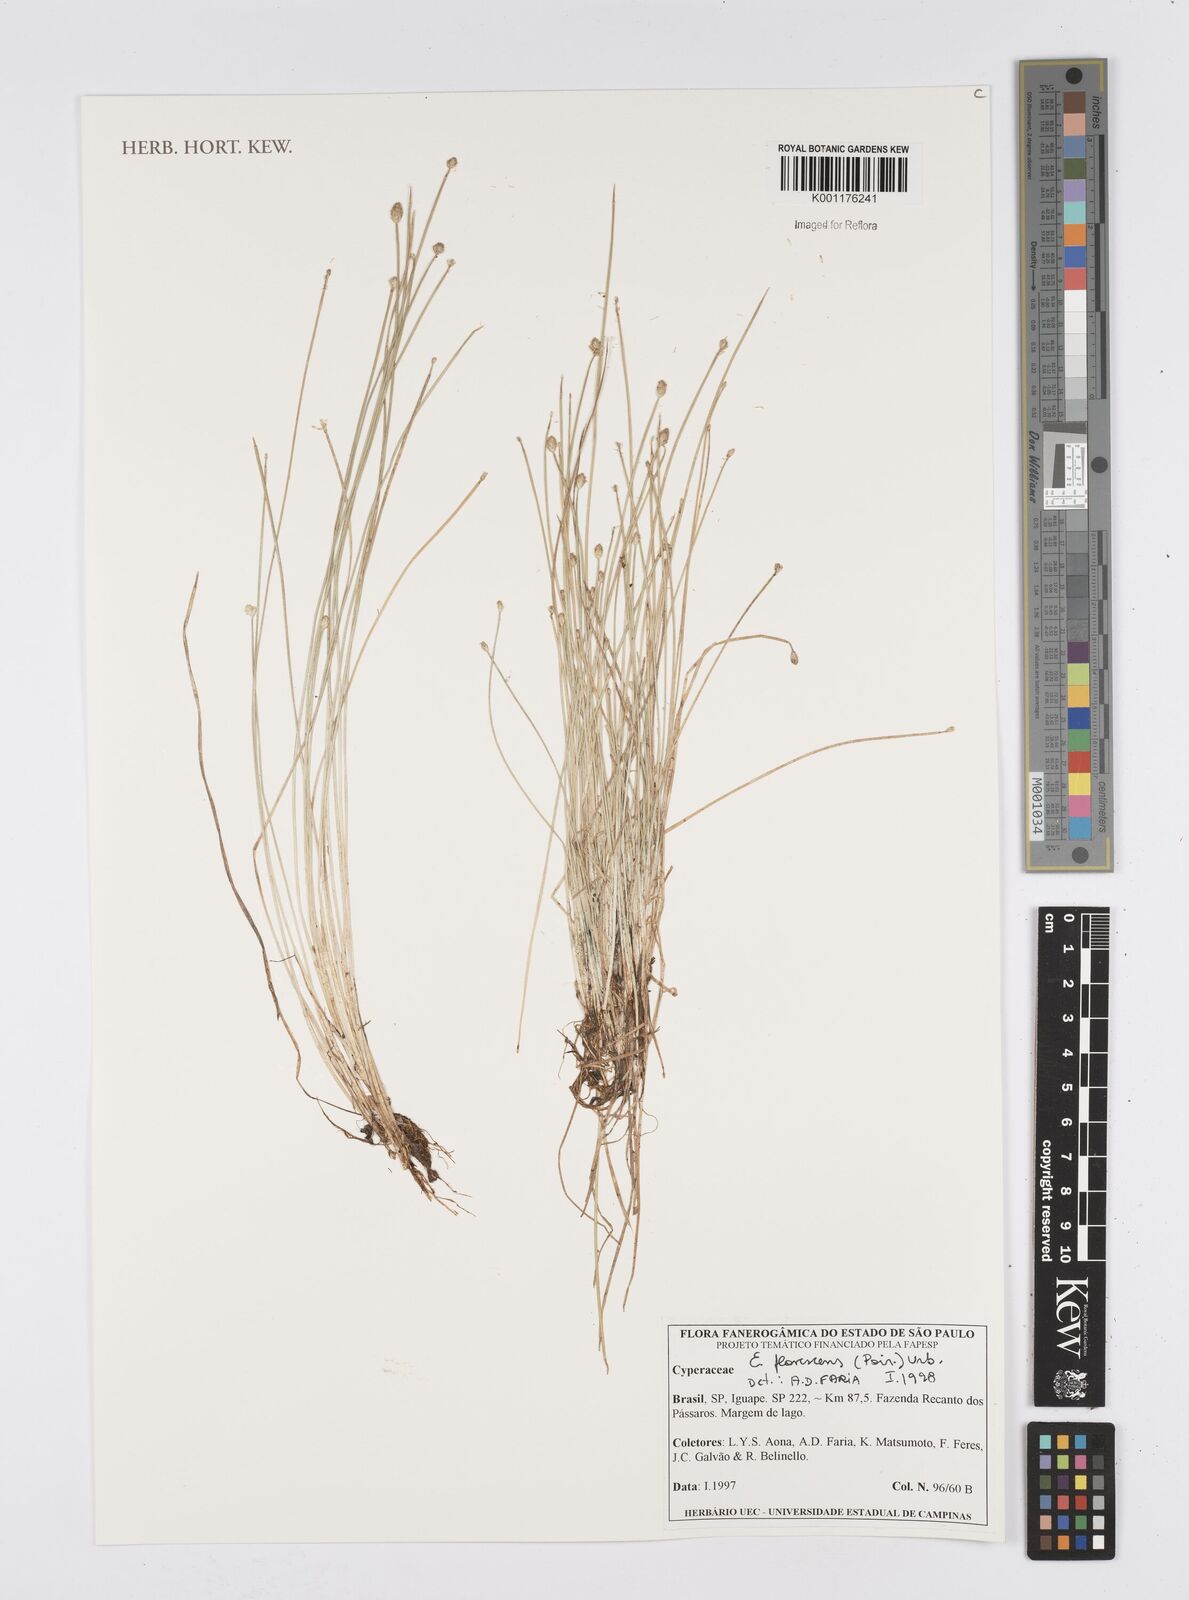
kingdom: Plantae
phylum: Tracheophyta
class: Liliopsida
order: Poales
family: Cyperaceae
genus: Eleocharis
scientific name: Eleocharis flavescens
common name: Yellow spikerush
